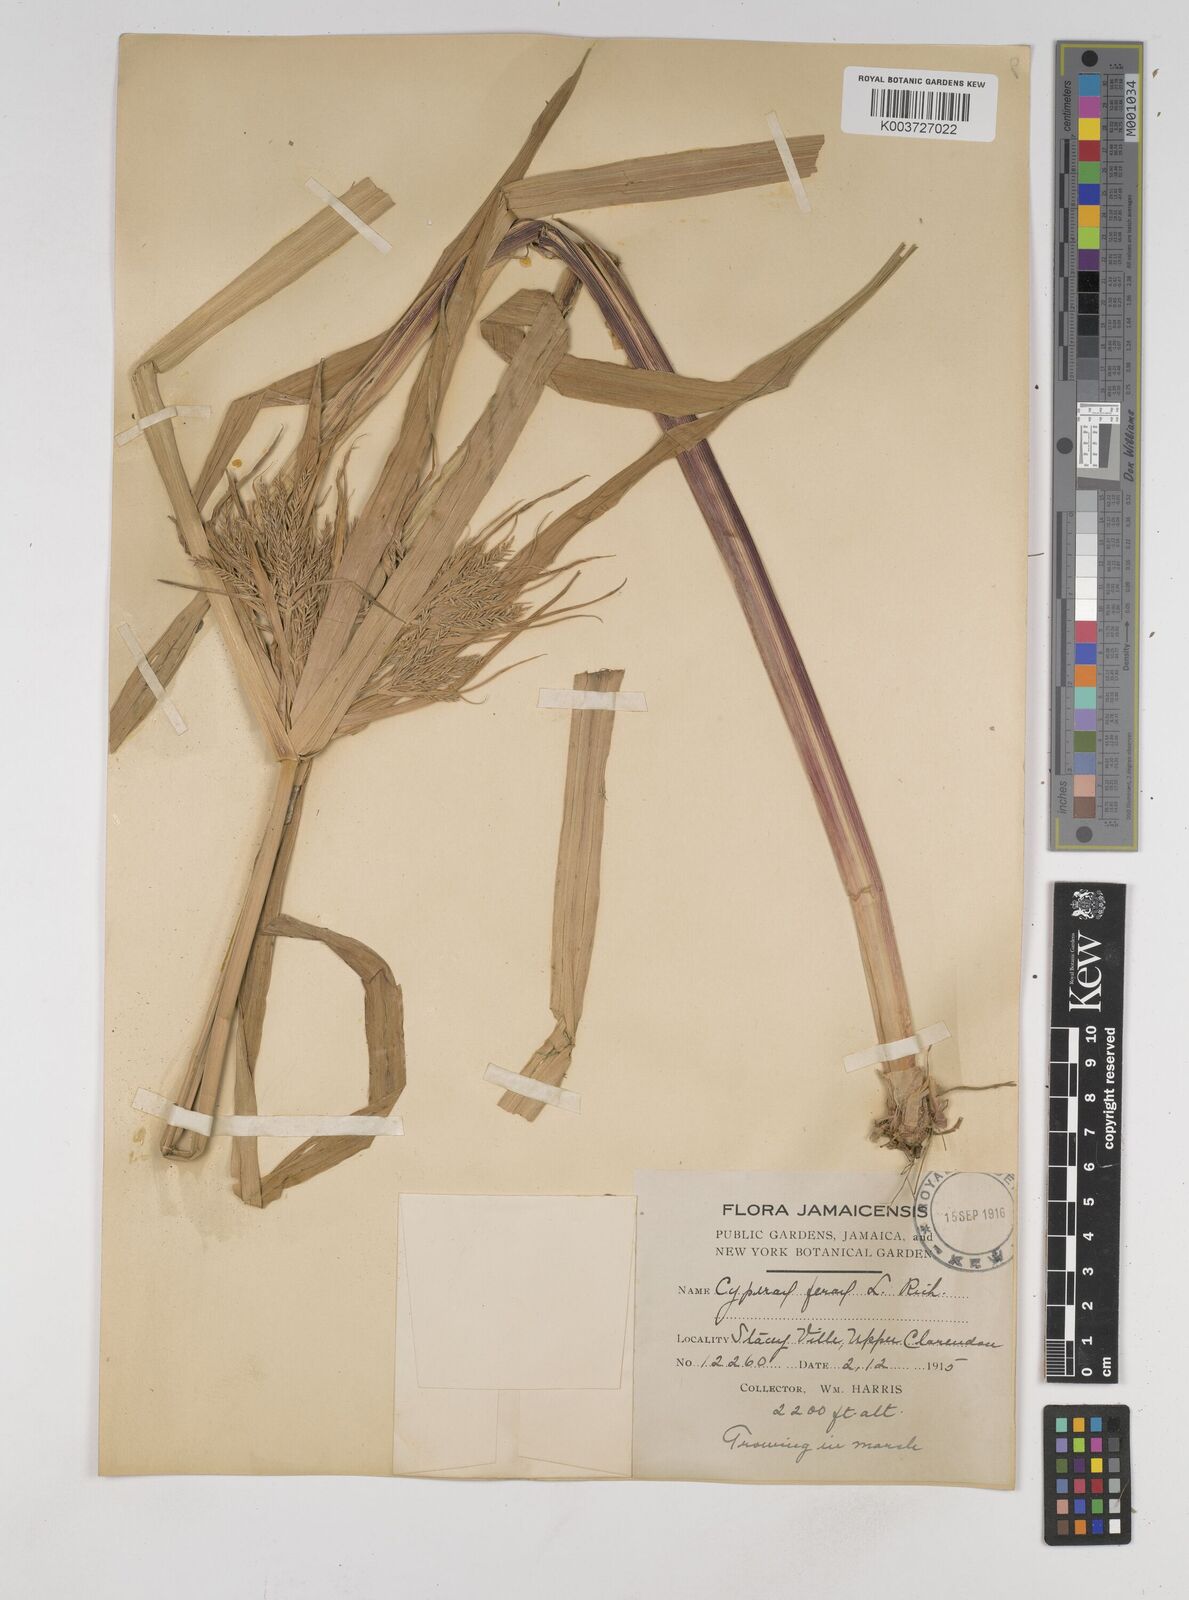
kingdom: Plantae
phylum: Tracheophyta
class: Liliopsida
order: Poales
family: Cyperaceae
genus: Cyperus
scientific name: Cyperus odoratus
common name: Fragrant flatsedge
